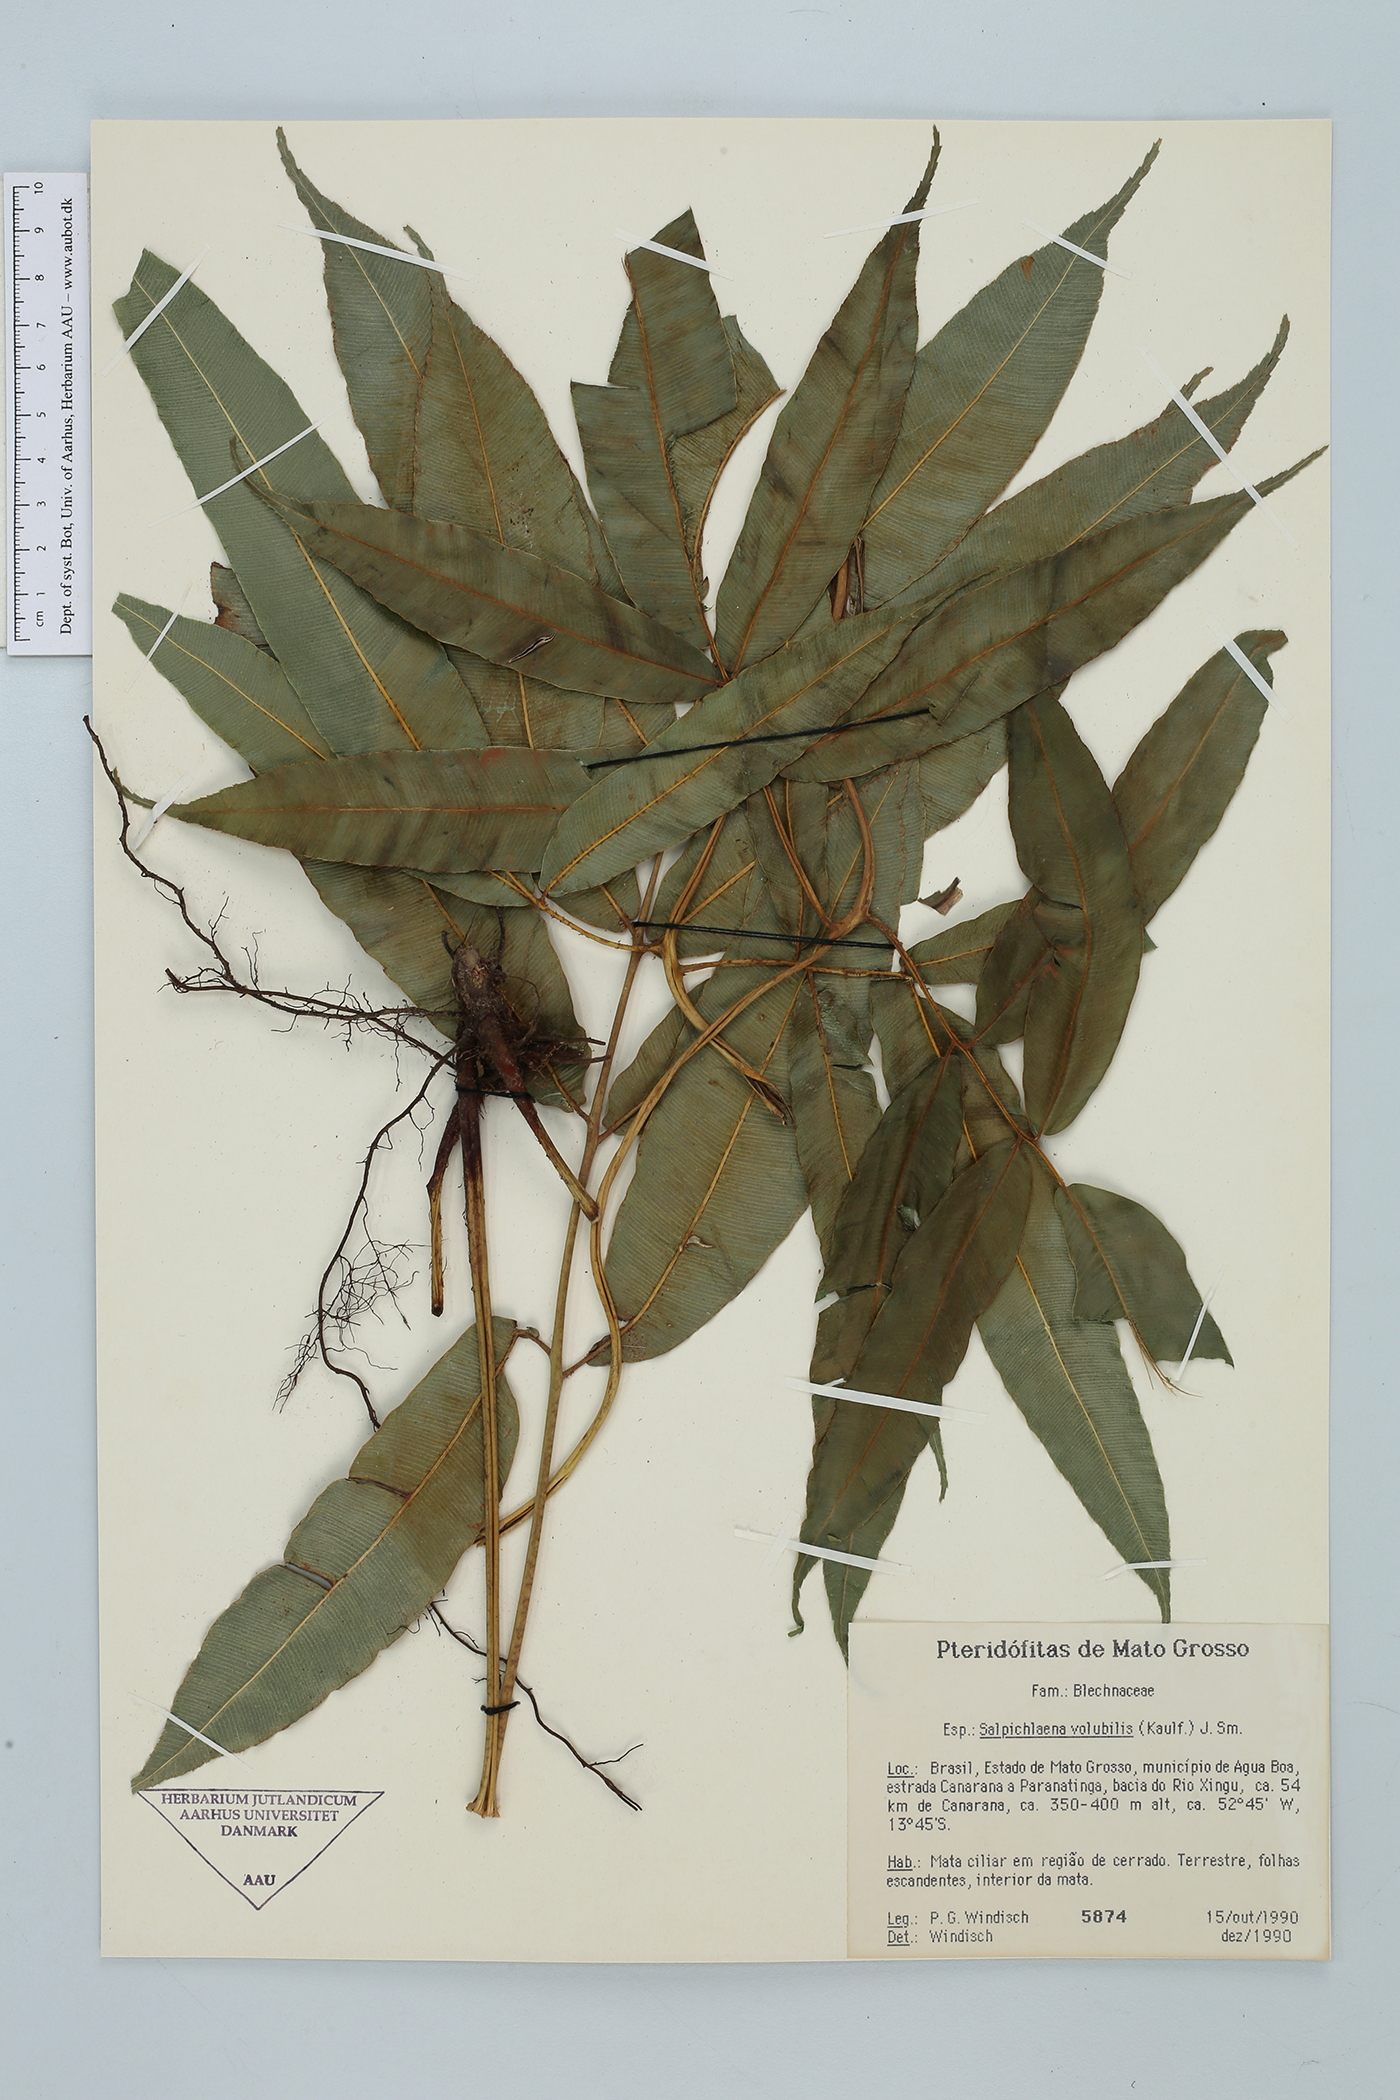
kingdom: Plantae
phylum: Tracheophyta
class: Polypodiopsida
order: Polypodiales
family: Blechnaceae
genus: Salpichlaena
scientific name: Salpichlaena volubilis
